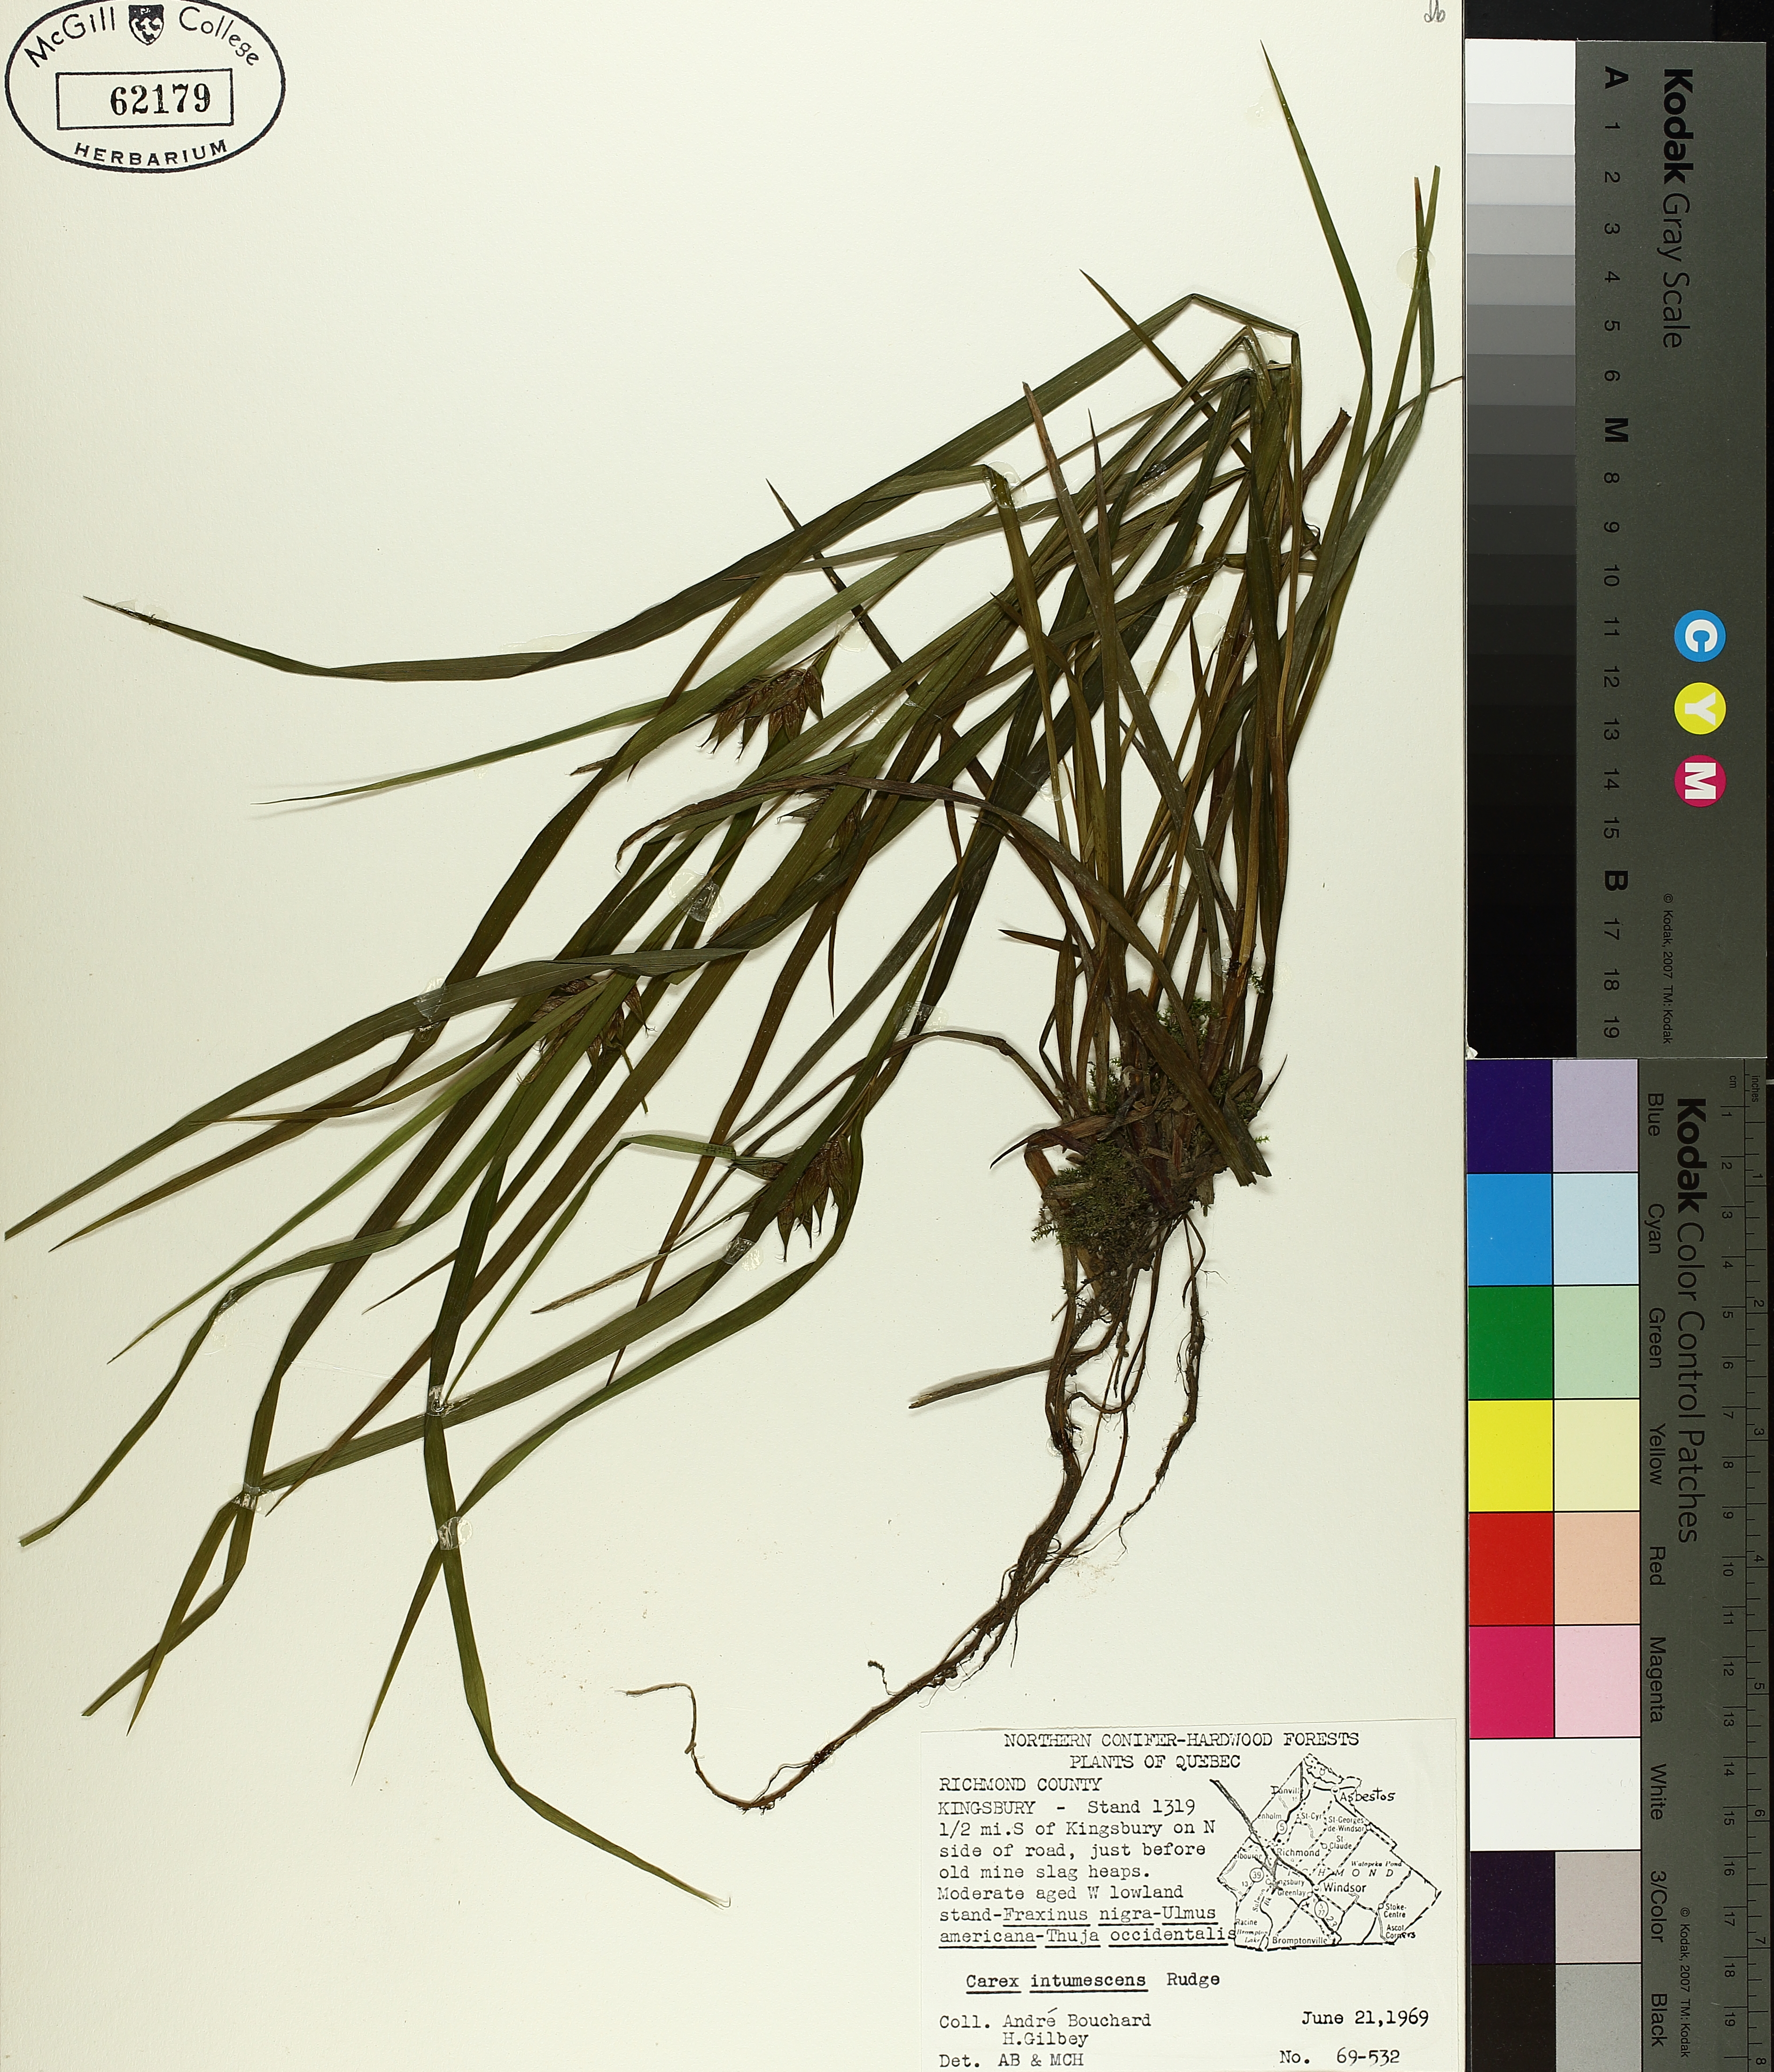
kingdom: Plantae
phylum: Tracheophyta
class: Liliopsida
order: Poales
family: Cyperaceae
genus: Carex
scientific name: Carex intumescens
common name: Greater bladder sedge
